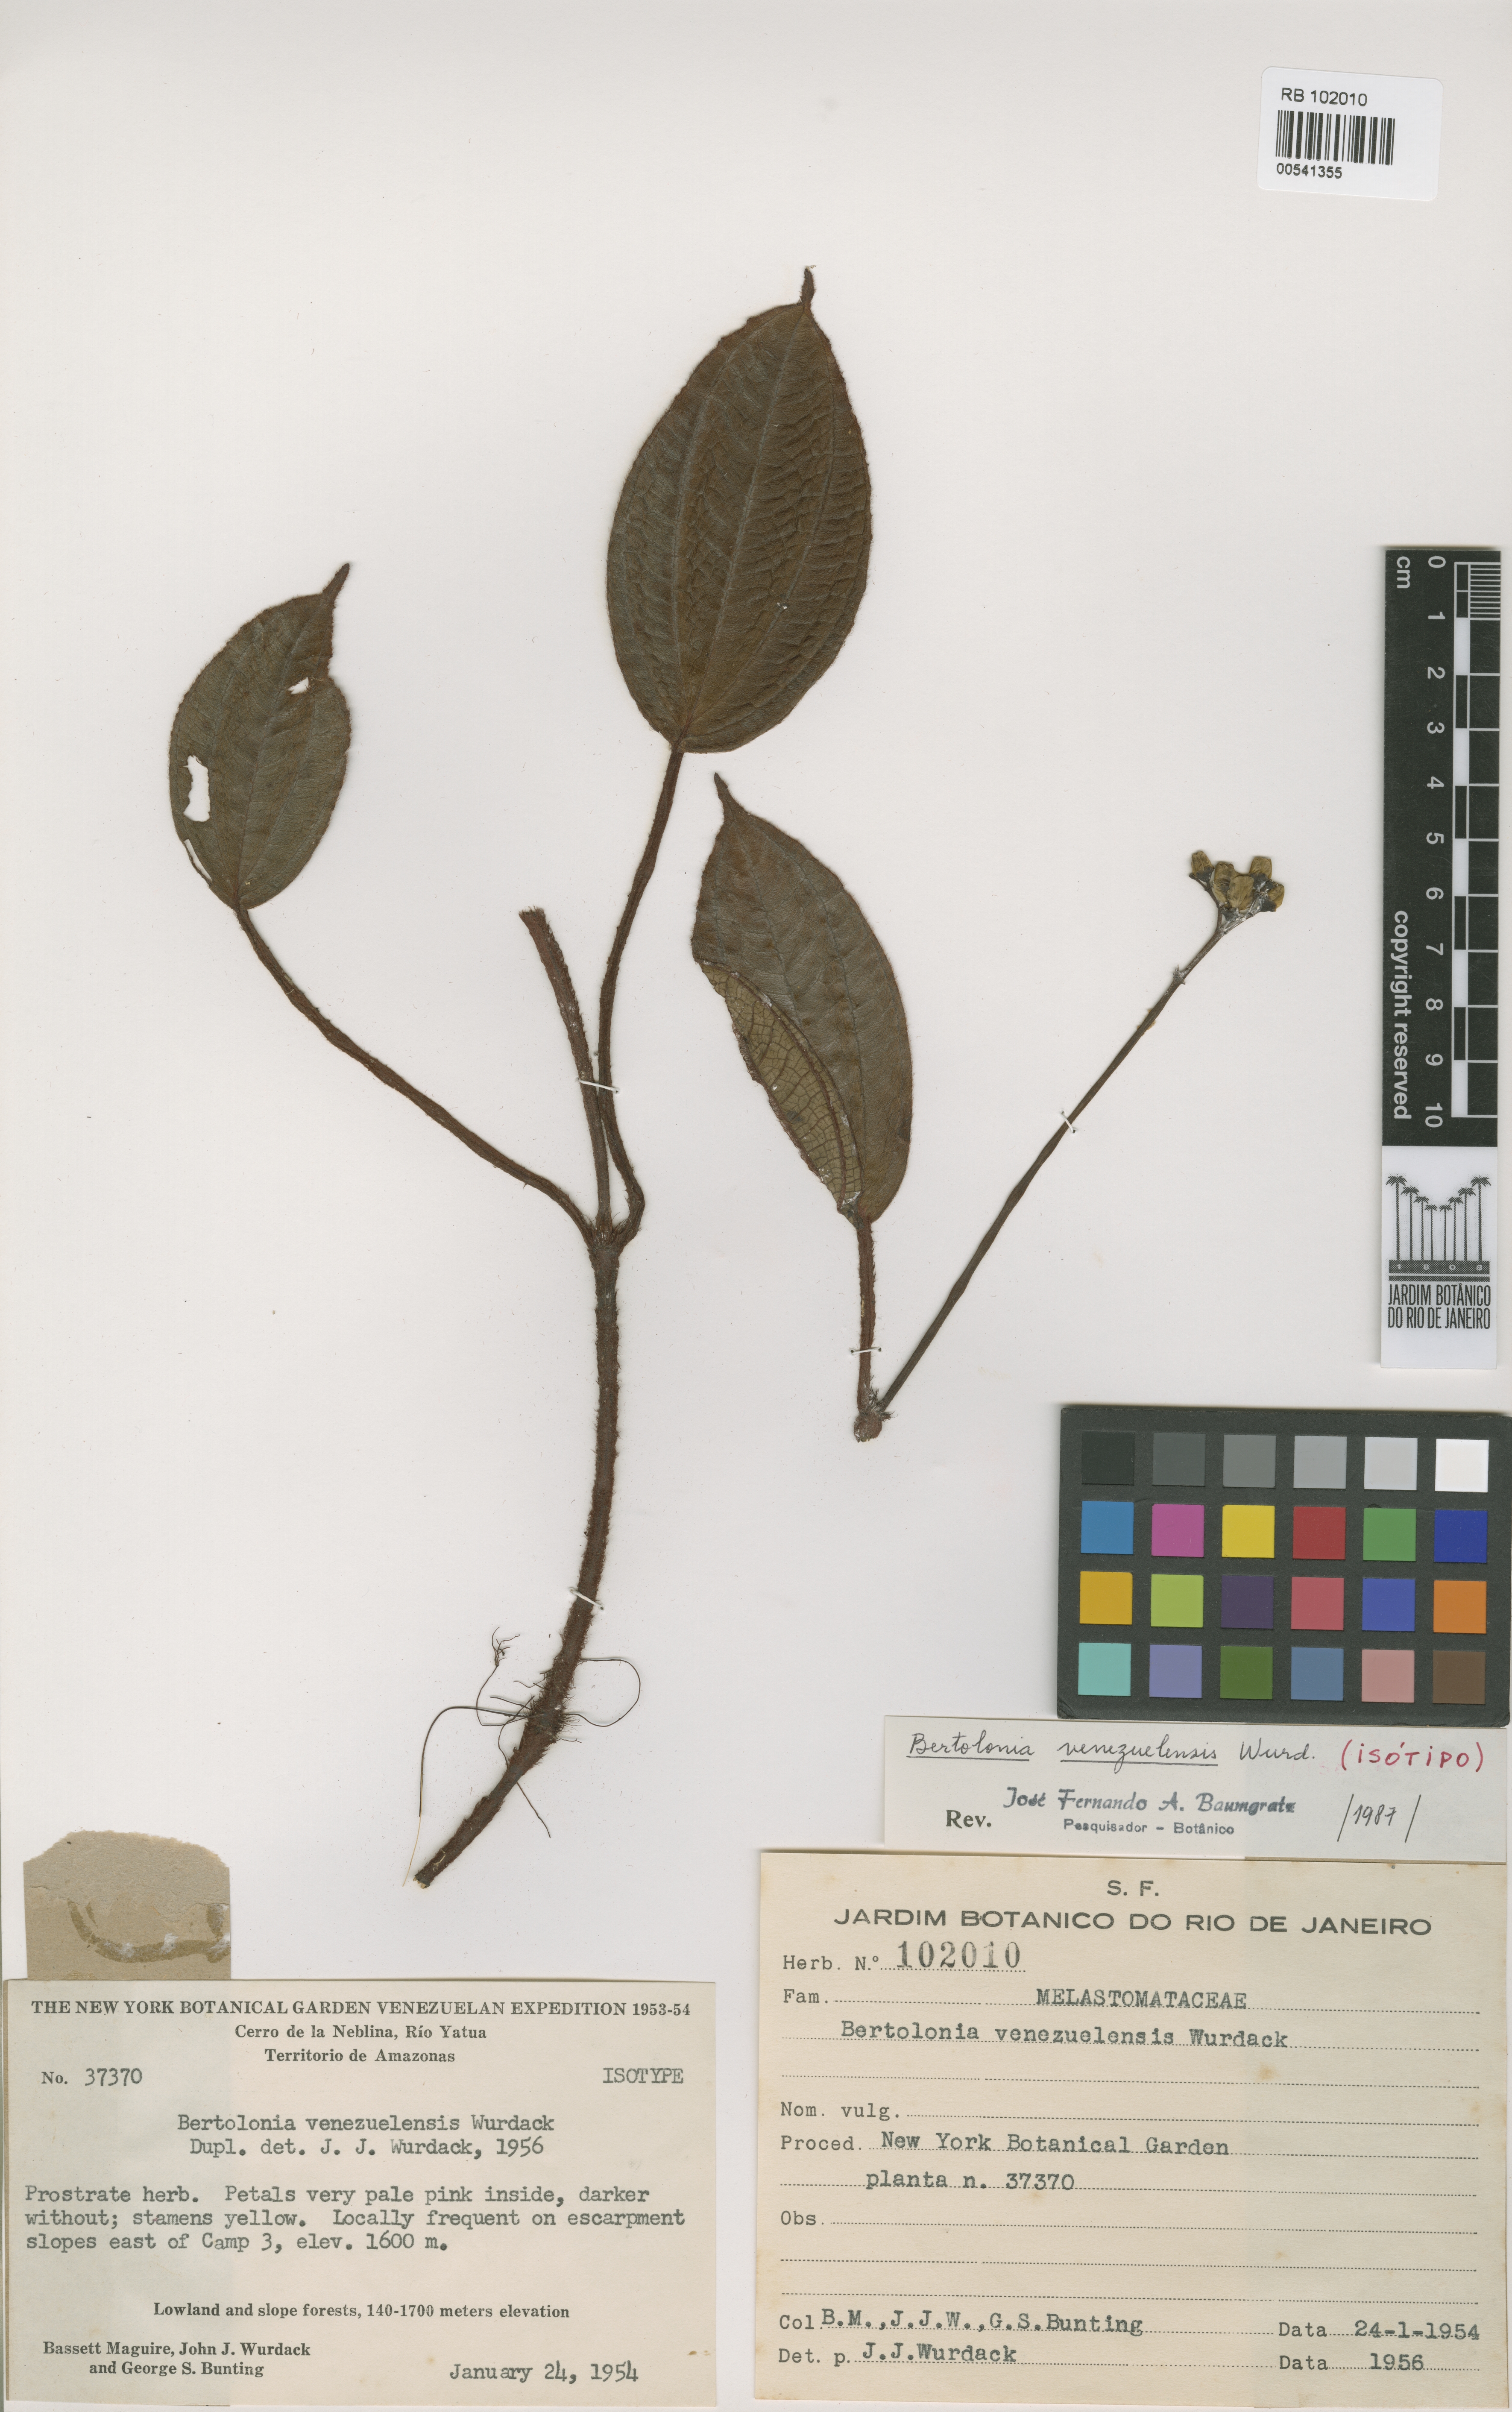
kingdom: Plantae
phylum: Tracheophyta
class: Magnoliopsida
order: Myrtales
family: Melastomataceae
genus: Bertolonia
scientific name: Bertolonia venezuelensis
